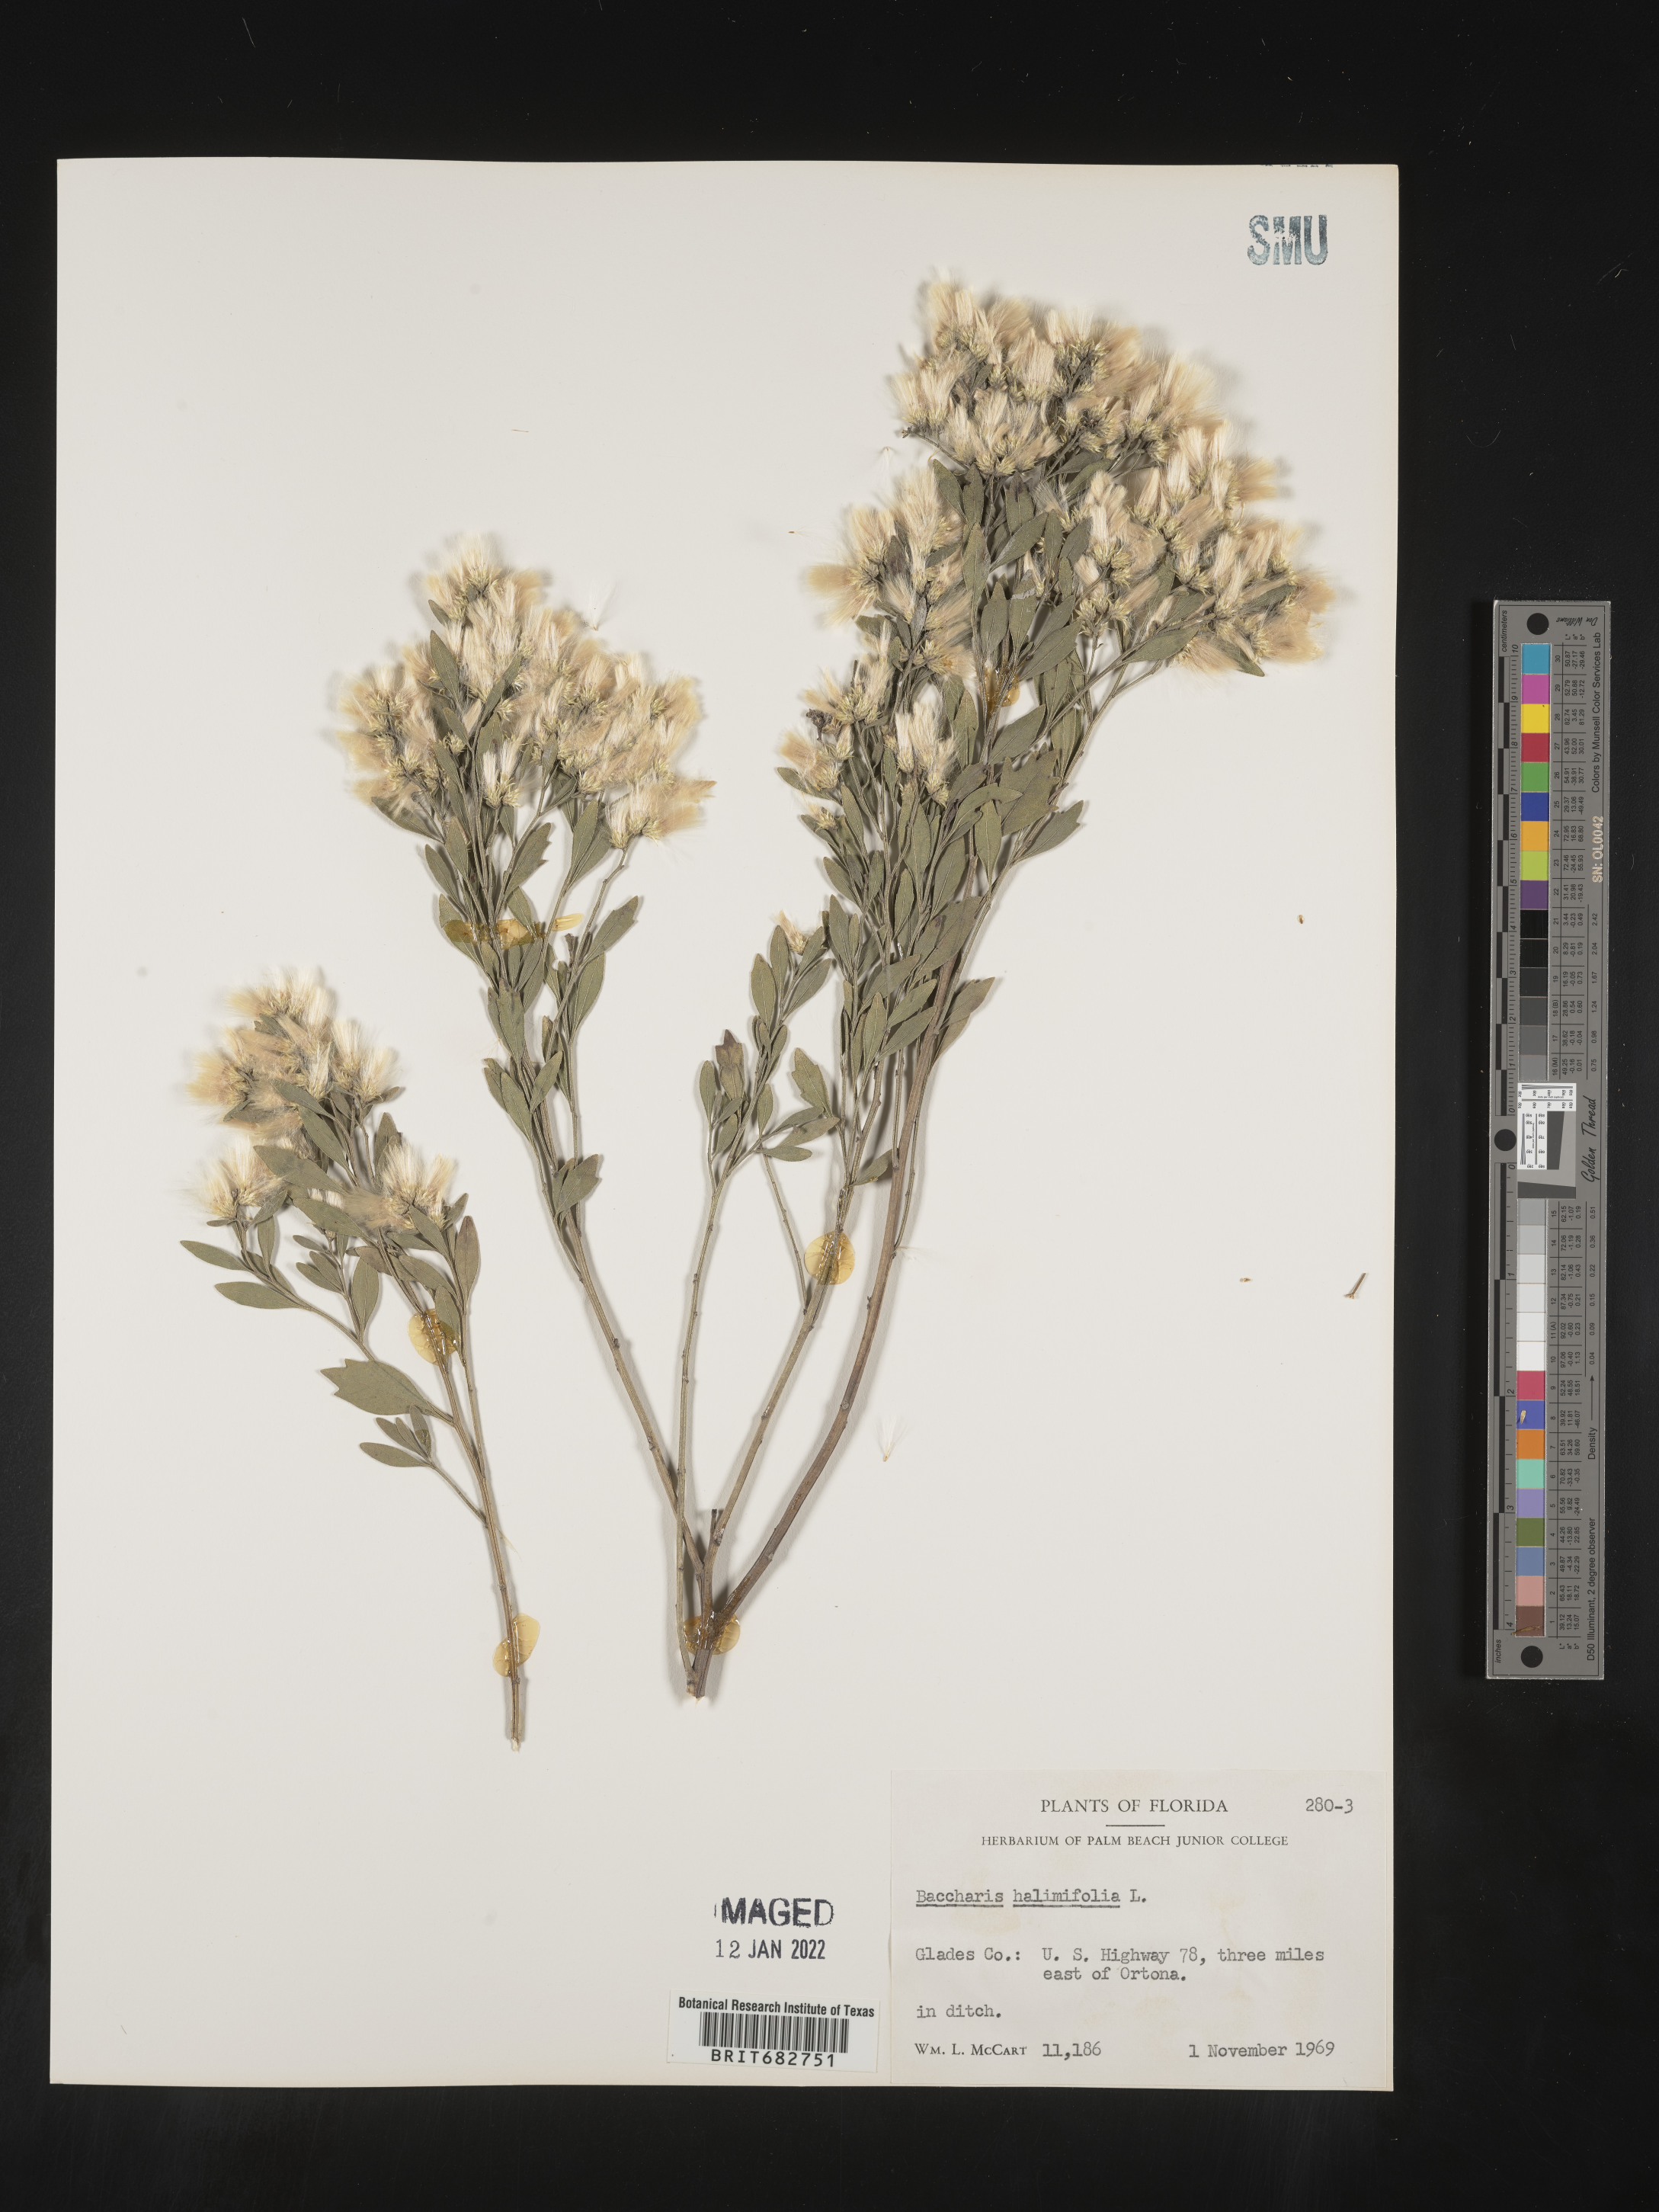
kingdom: Plantae
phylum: Tracheophyta
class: Magnoliopsida
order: Asterales
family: Asteraceae
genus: Nidorella
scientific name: Nidorella ivifolia
